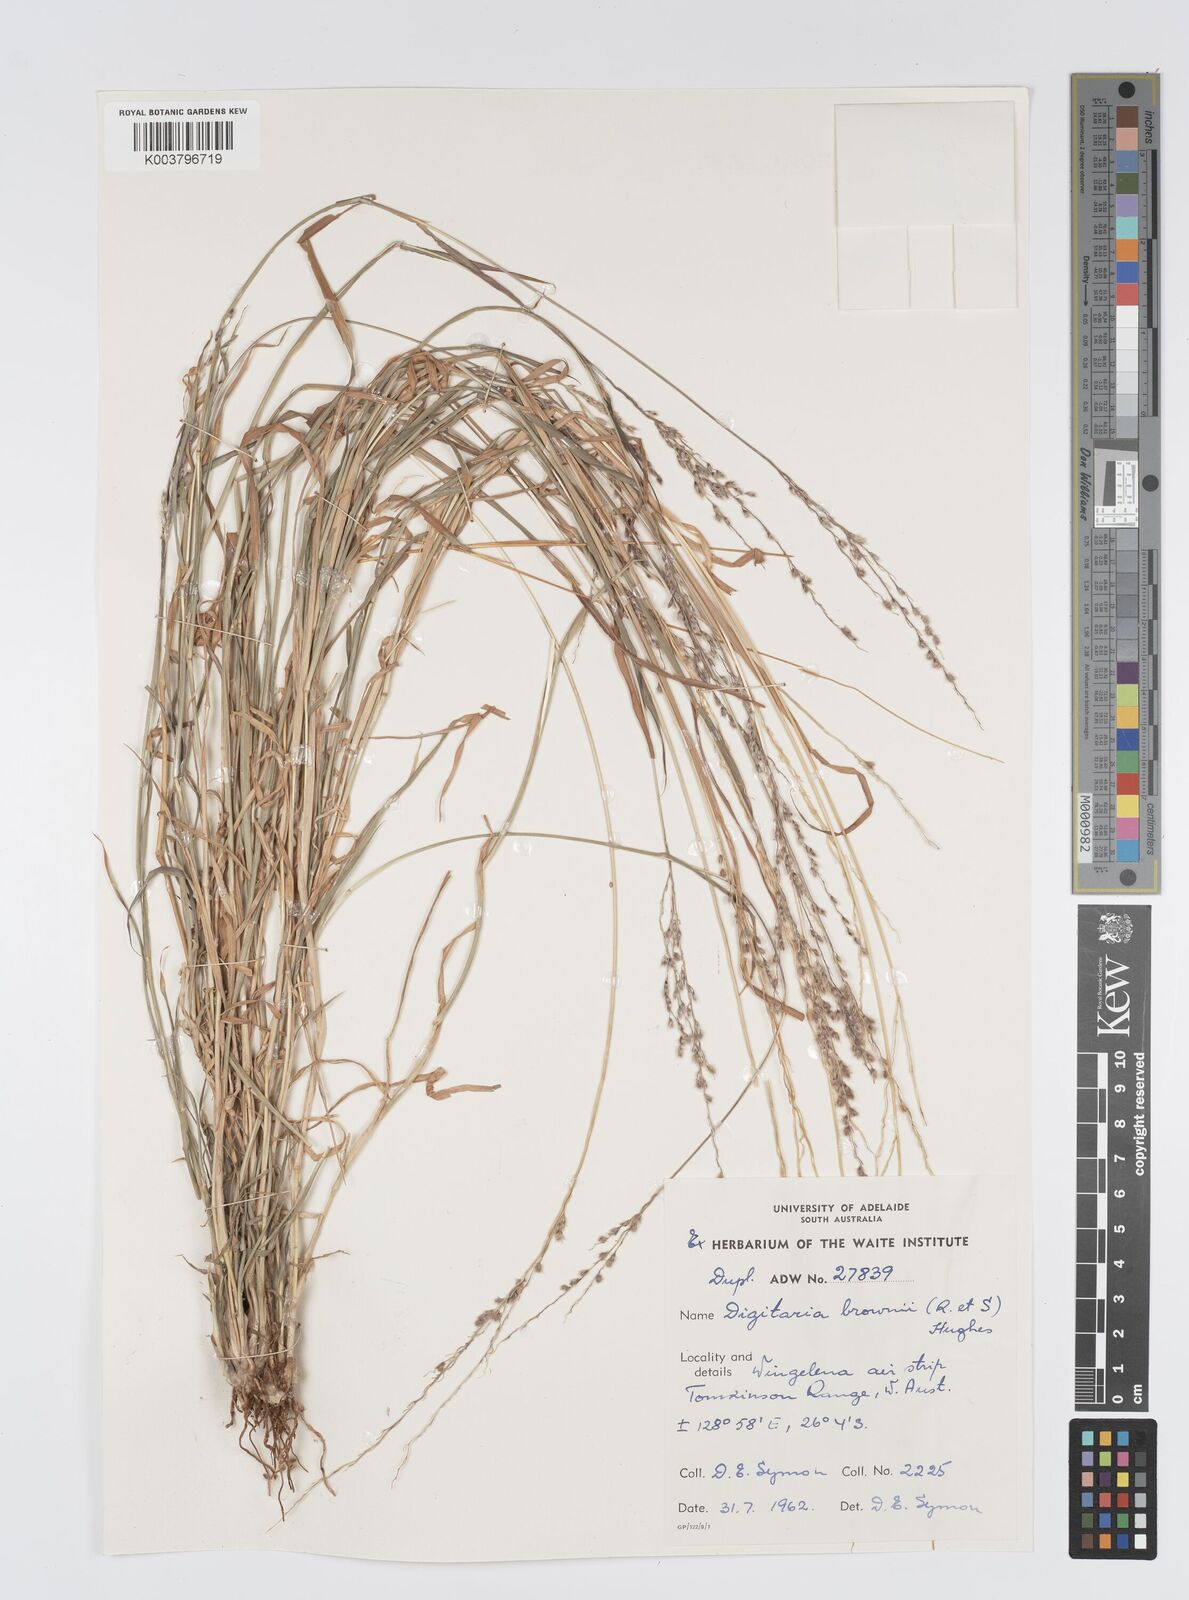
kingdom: Plantae
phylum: Tracheophyta
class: Liliopsida
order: Poales
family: Poaceae
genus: Digitaria
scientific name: Digitaria brownii
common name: Cotton grass
